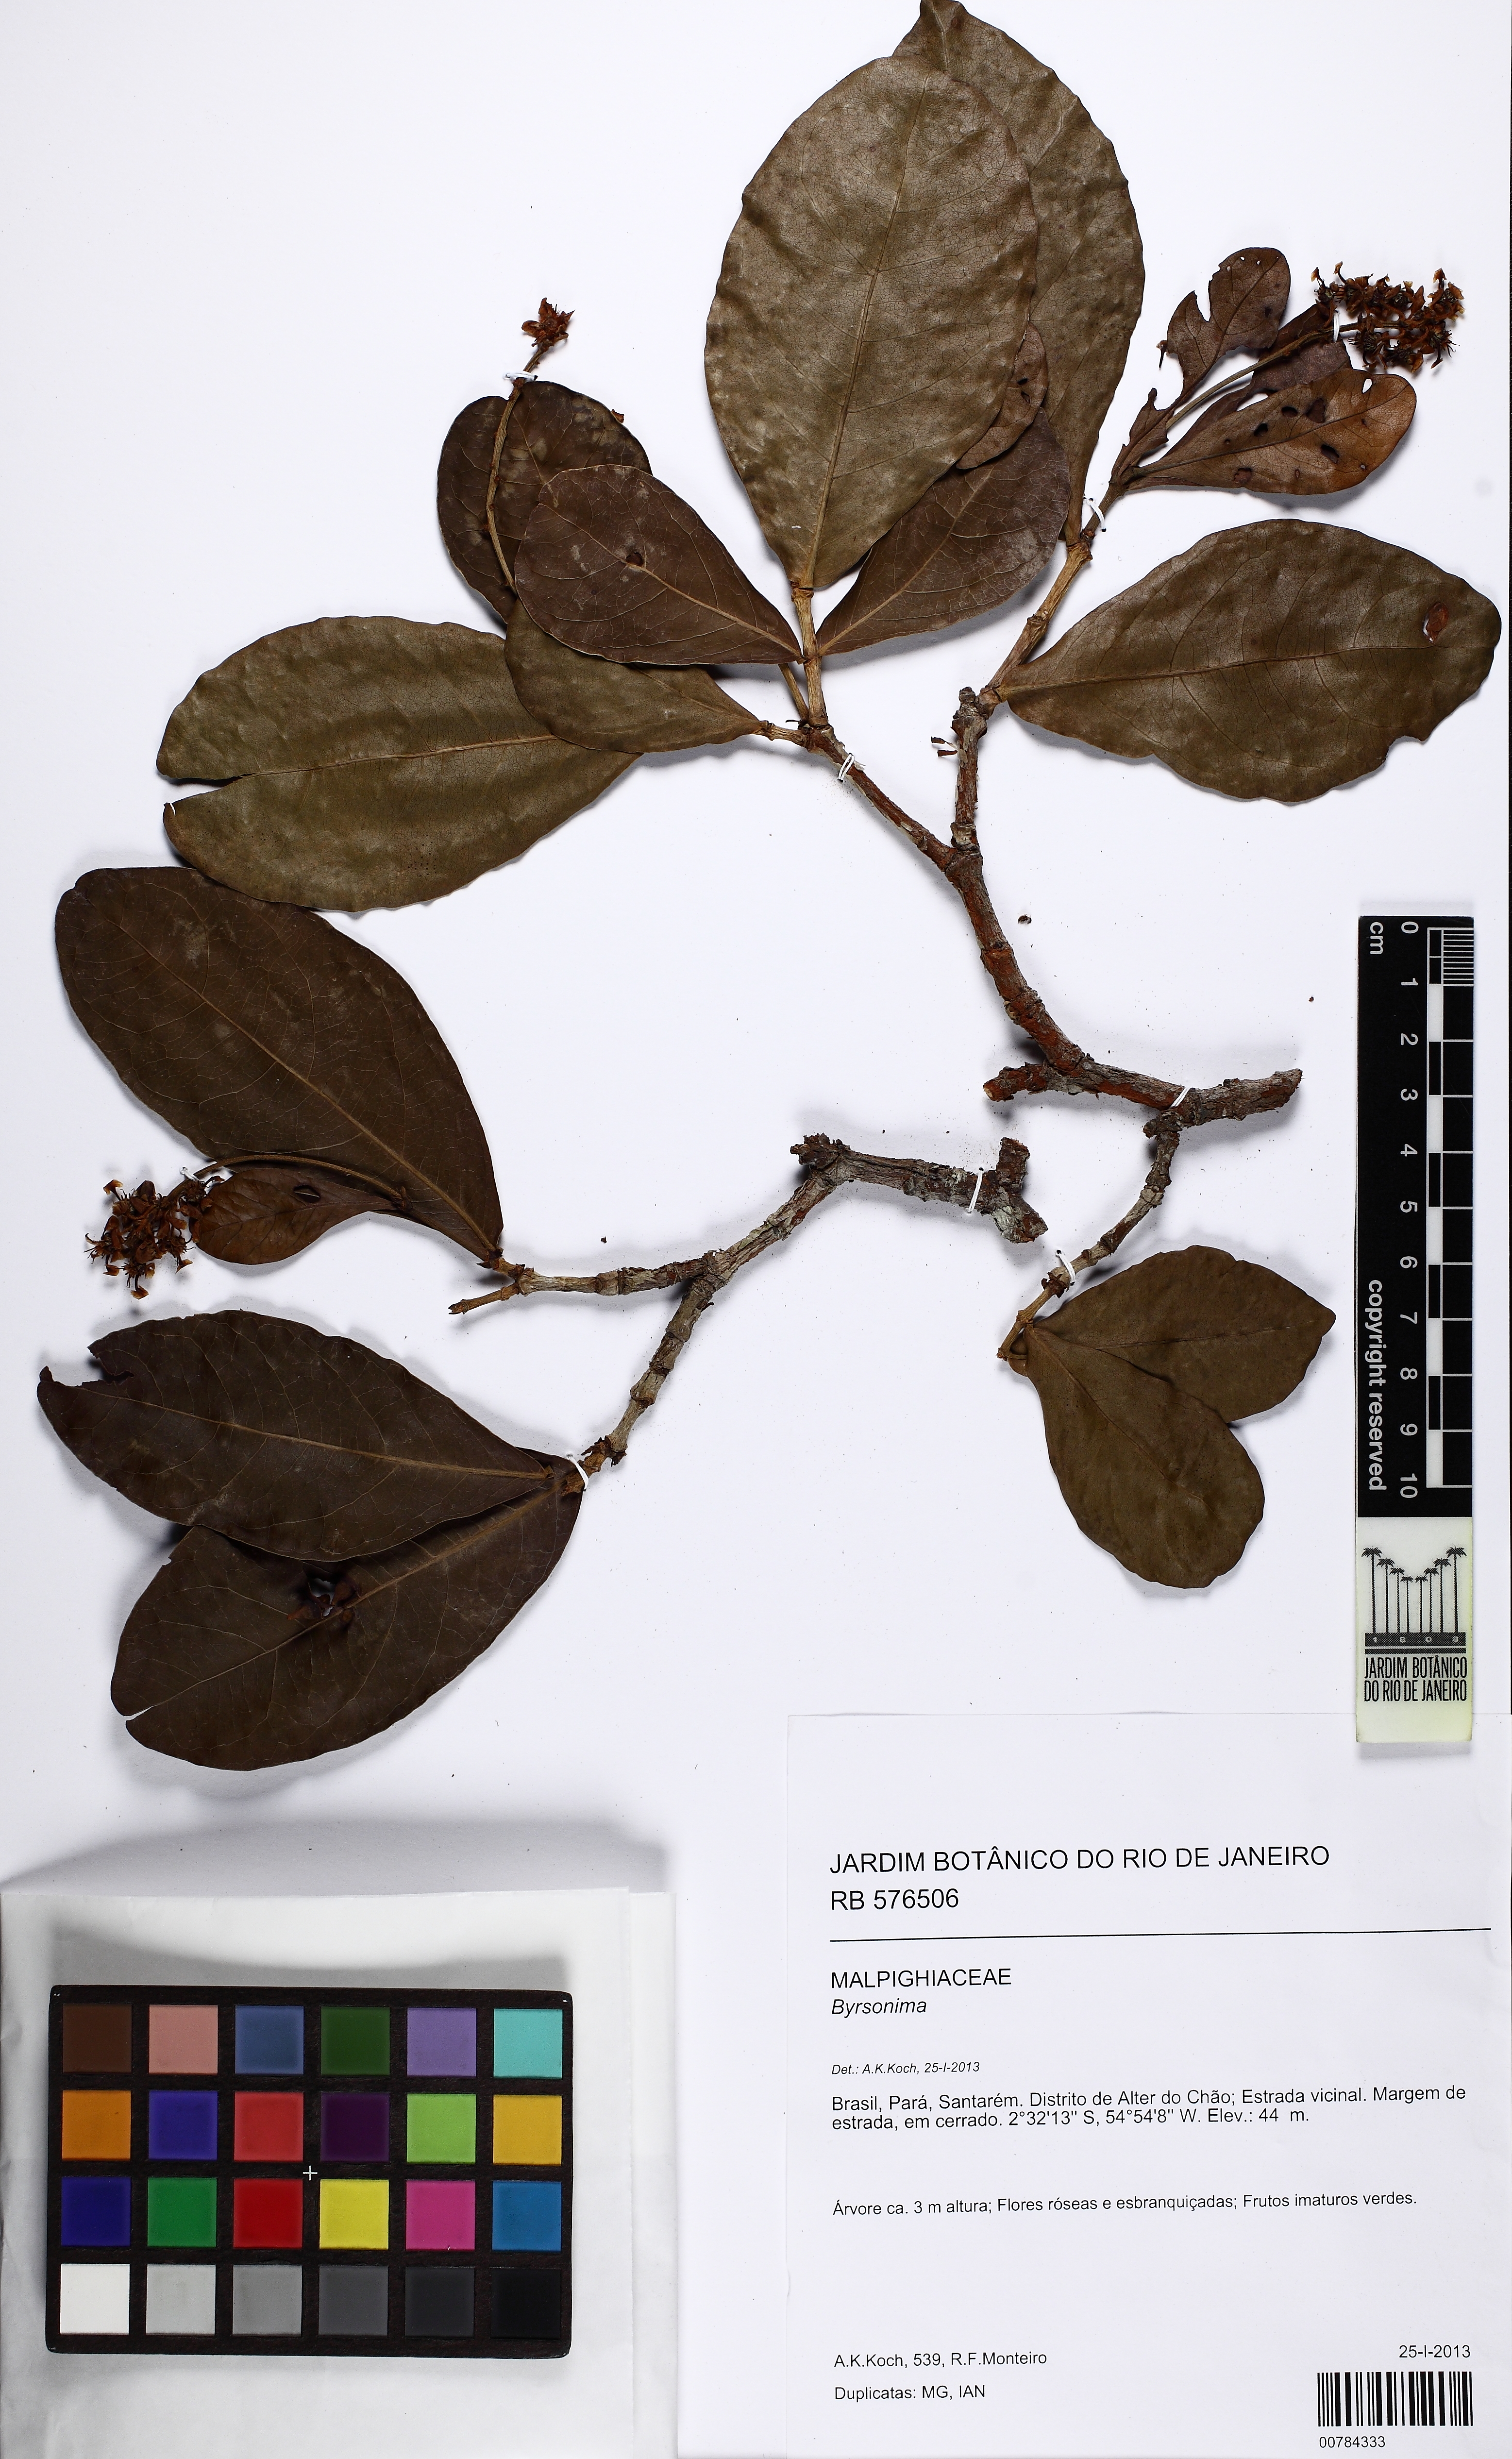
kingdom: Plantae
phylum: Tracheophyta
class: Magnoliopsida
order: Malpighiales
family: Malpighiaceae
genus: Byrsonima
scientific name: Byrsonima
